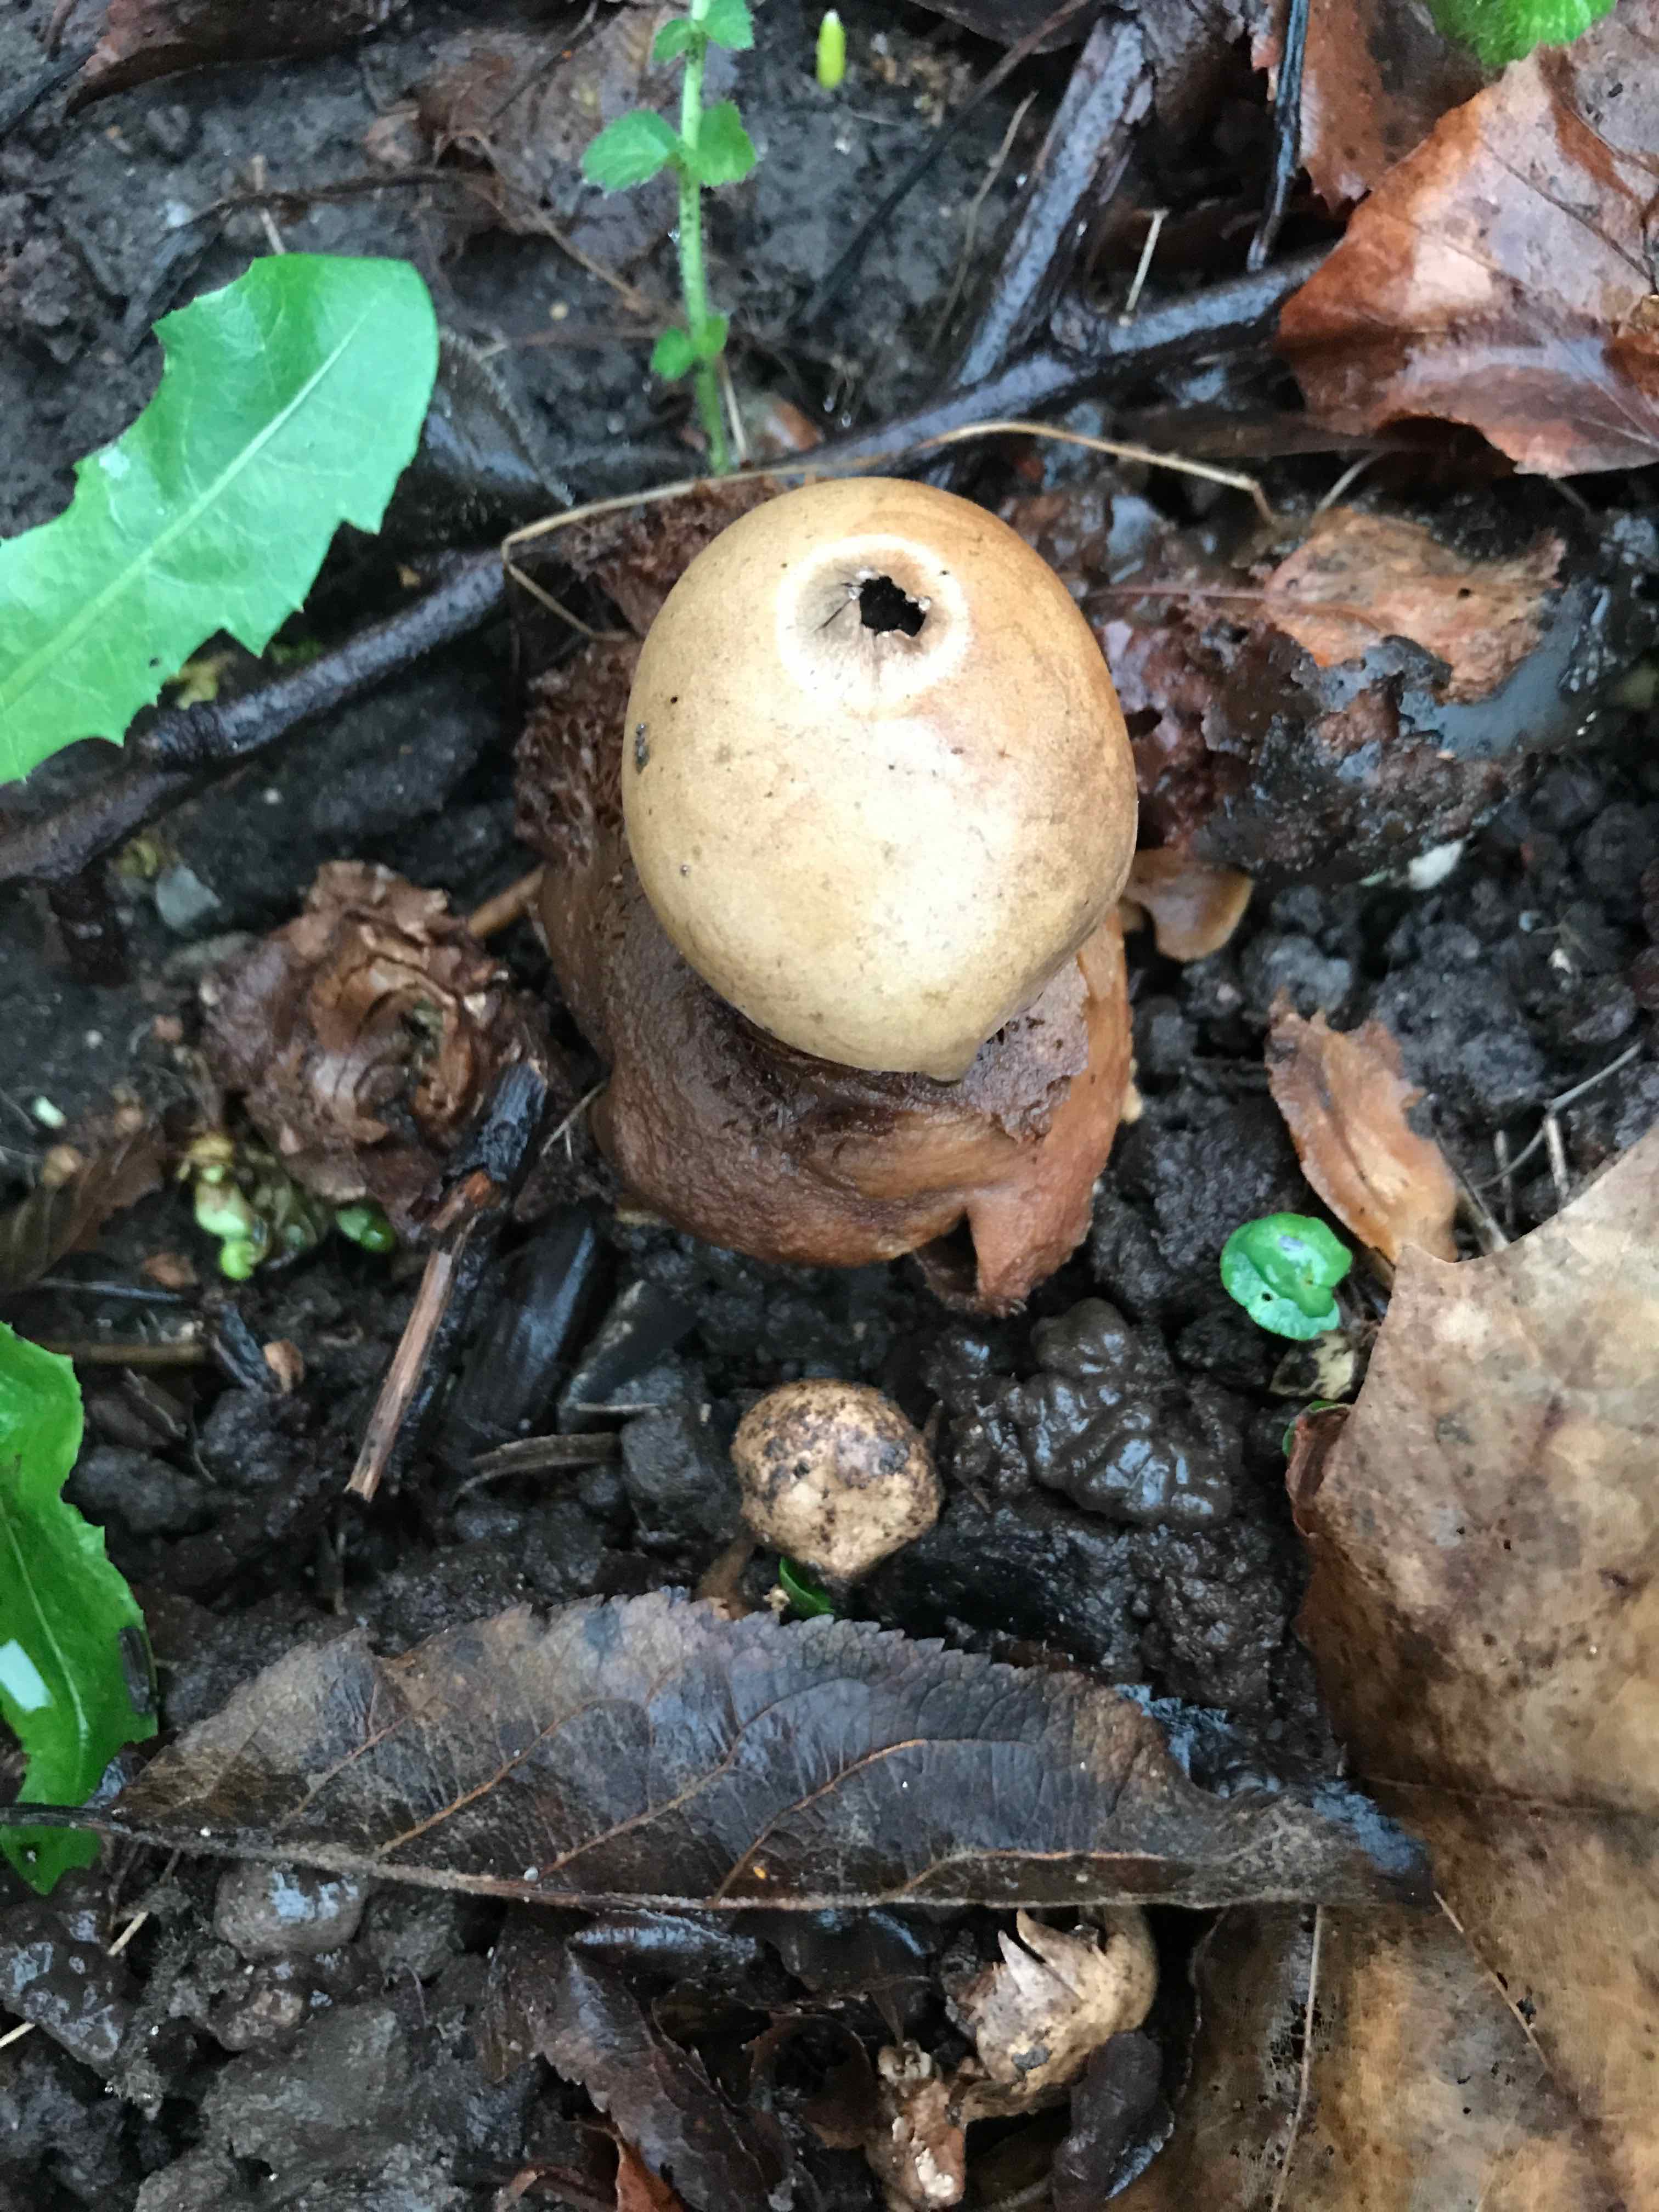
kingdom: Fungi
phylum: Basidiomycota
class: Agaricomycetes
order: Geastrales
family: Geastraceae
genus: Geastrum
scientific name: Geastrum michelianum
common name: kødet stjernebold
